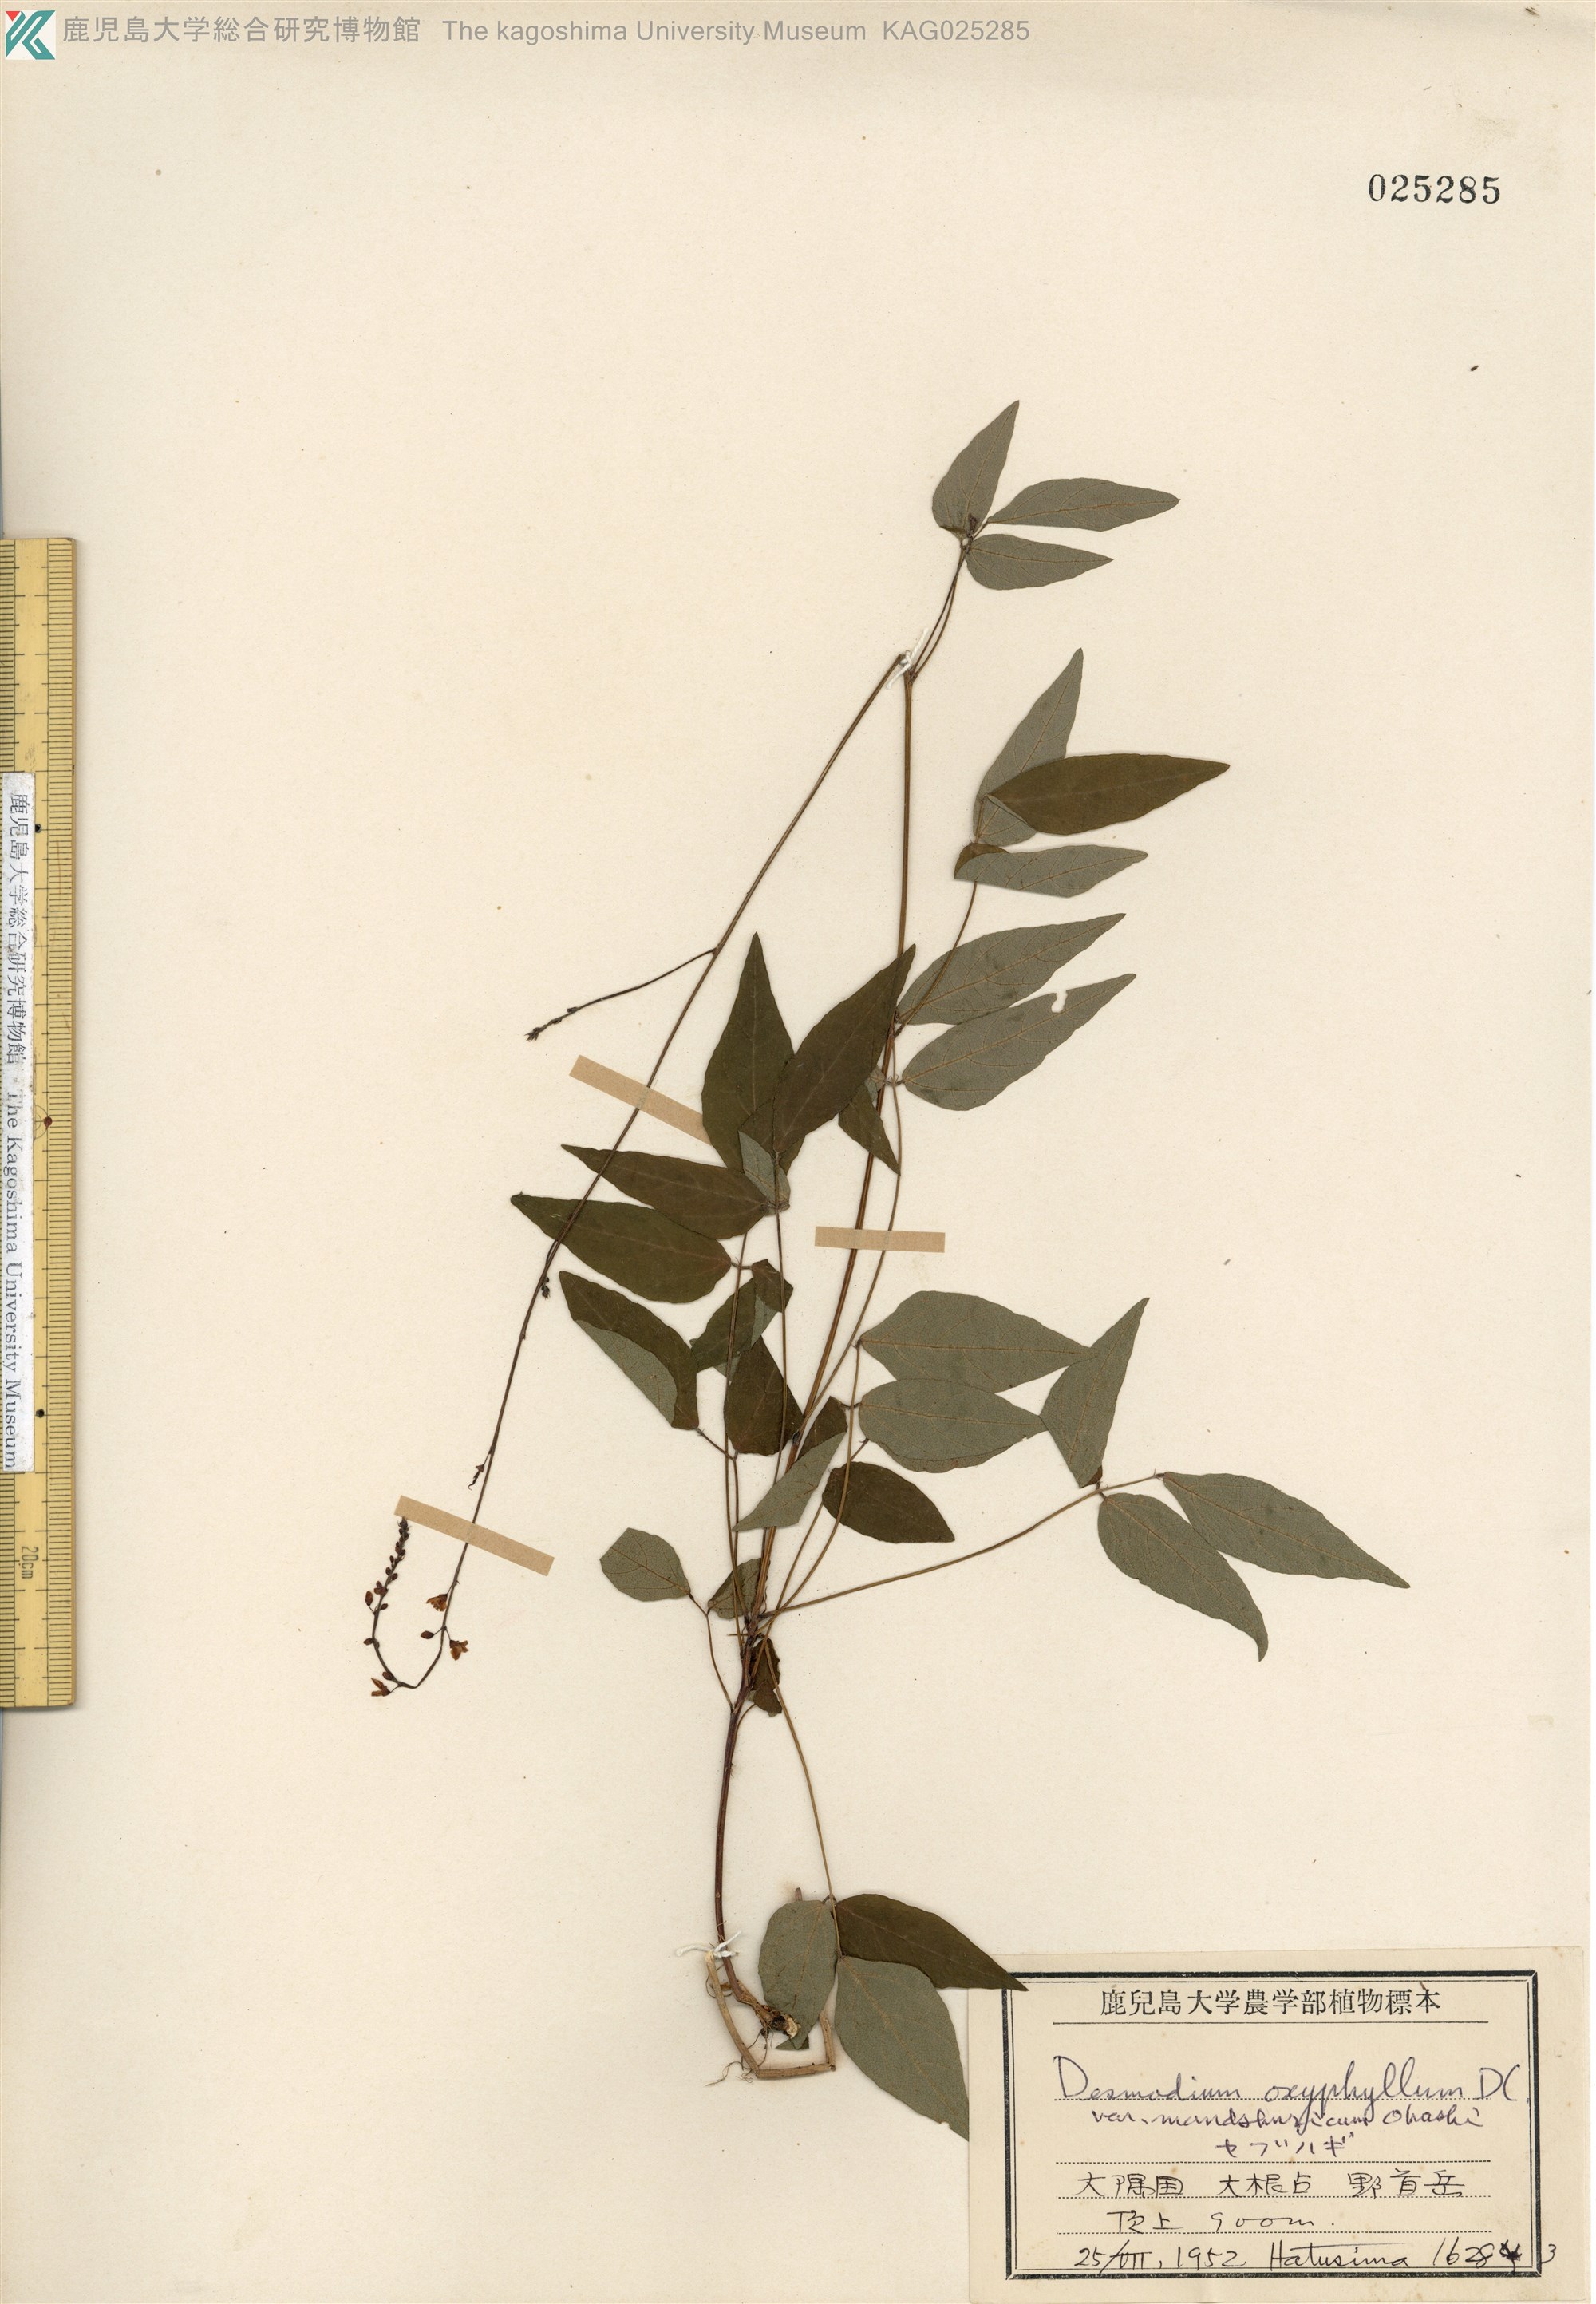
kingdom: Plantae
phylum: Tracheophyta
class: Magnoliopsida
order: Fabales
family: Fabaceae
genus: Hylodesmum
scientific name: Hylodesmum podocarpum
